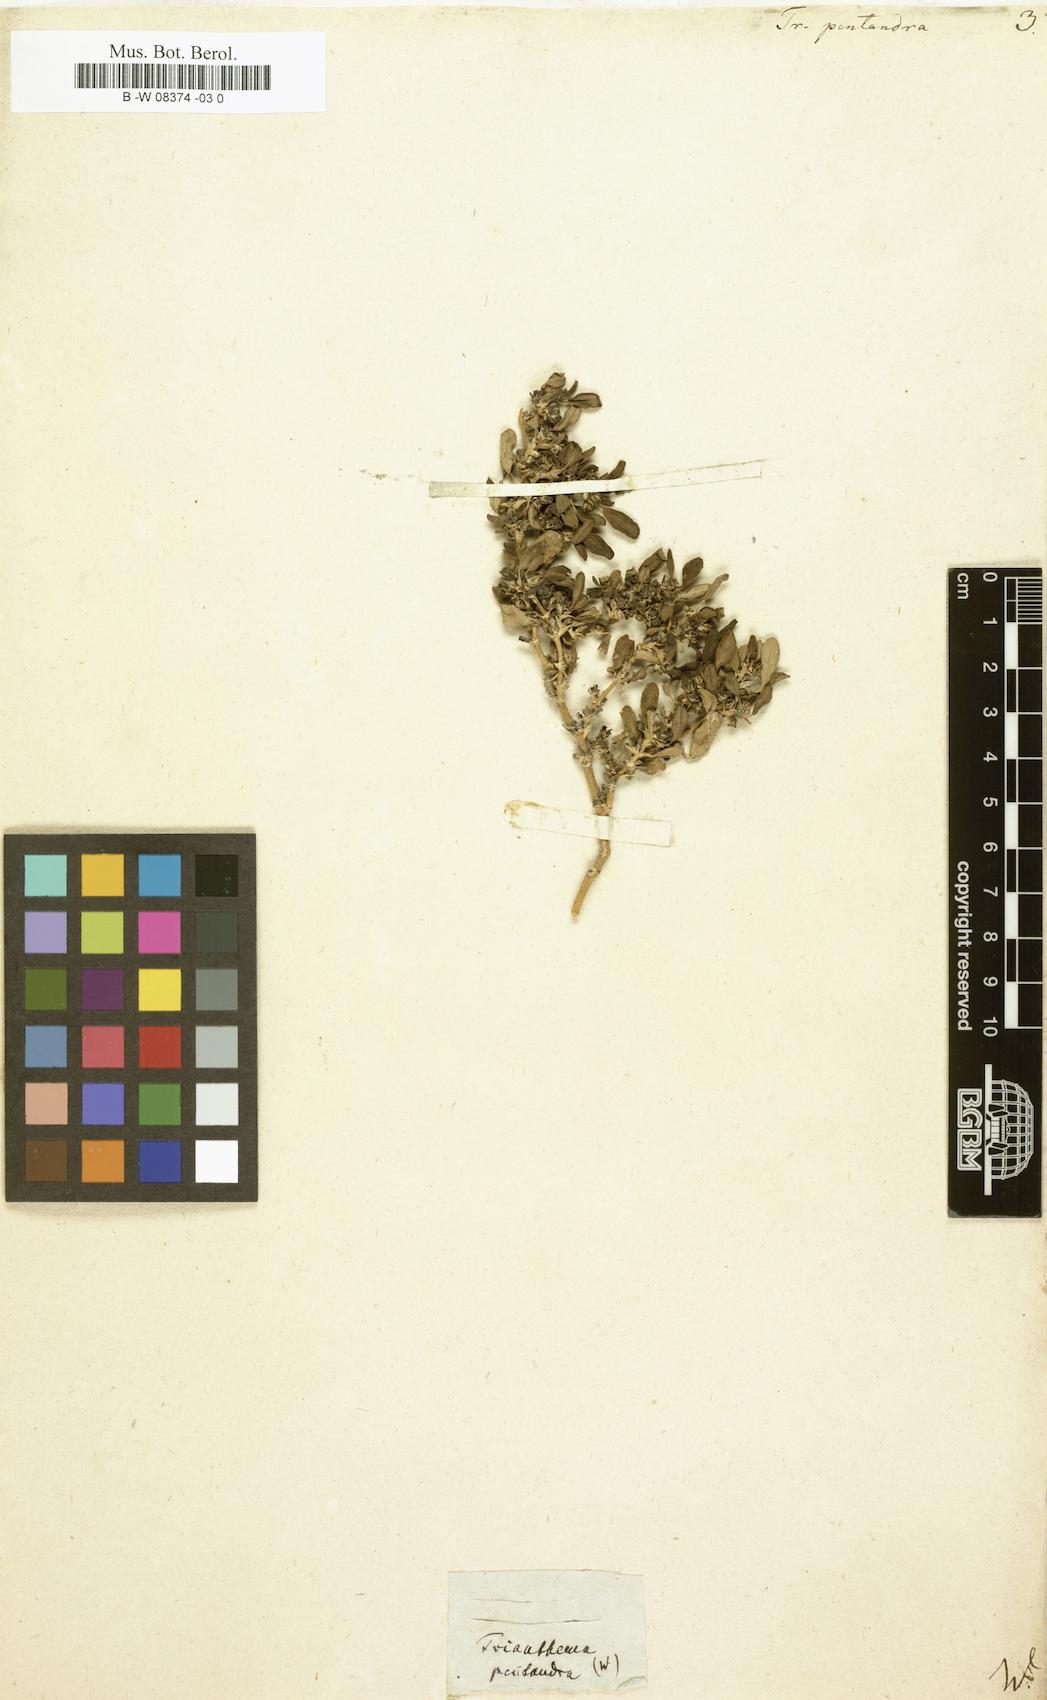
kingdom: Plantae
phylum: Tracheophyta
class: Magnoliopsida
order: Caryophyllales
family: Aizoaceae
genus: Zaleya
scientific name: Zaleya pentandra
